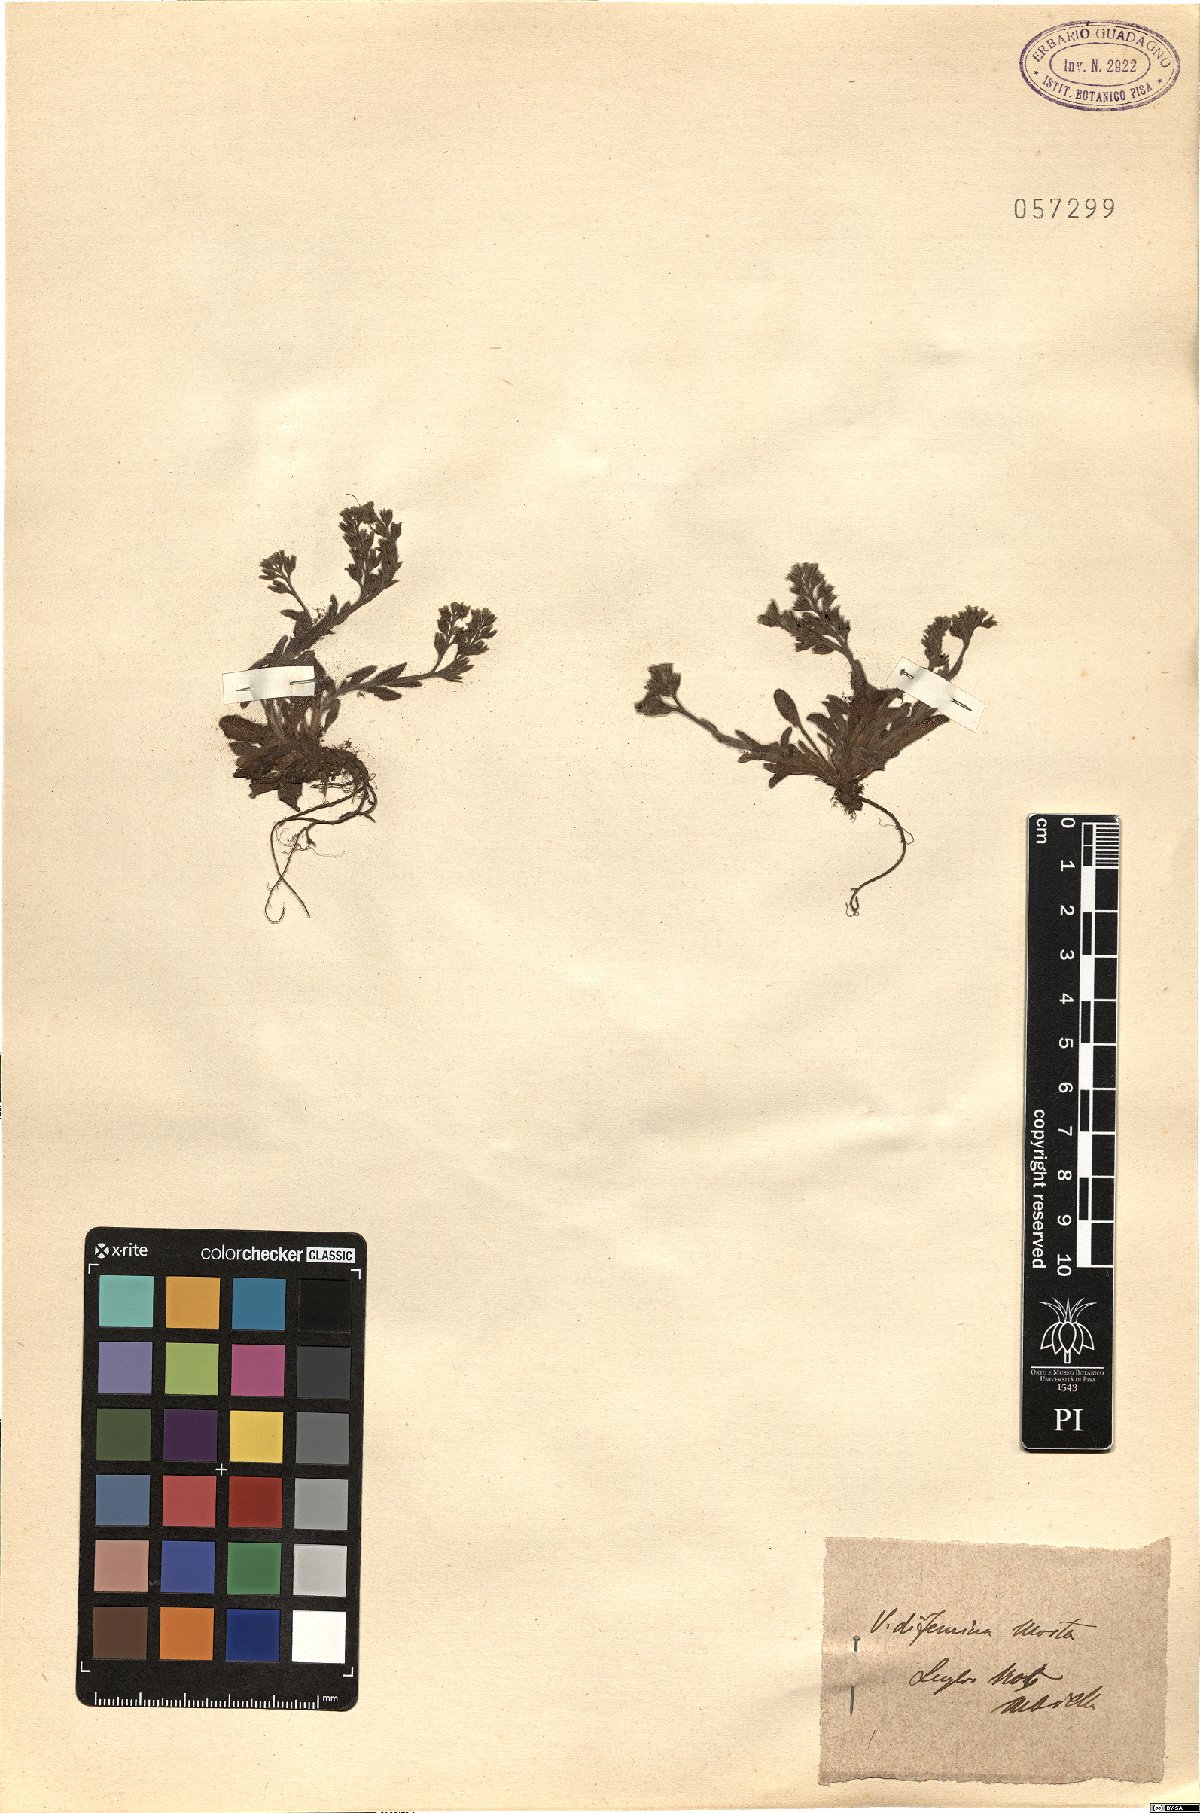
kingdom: Plantae
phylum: Tracheophyta
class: Magnoliopsida
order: Boraginales
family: Boraginaceae
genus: Myosotis
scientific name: Myosotis
